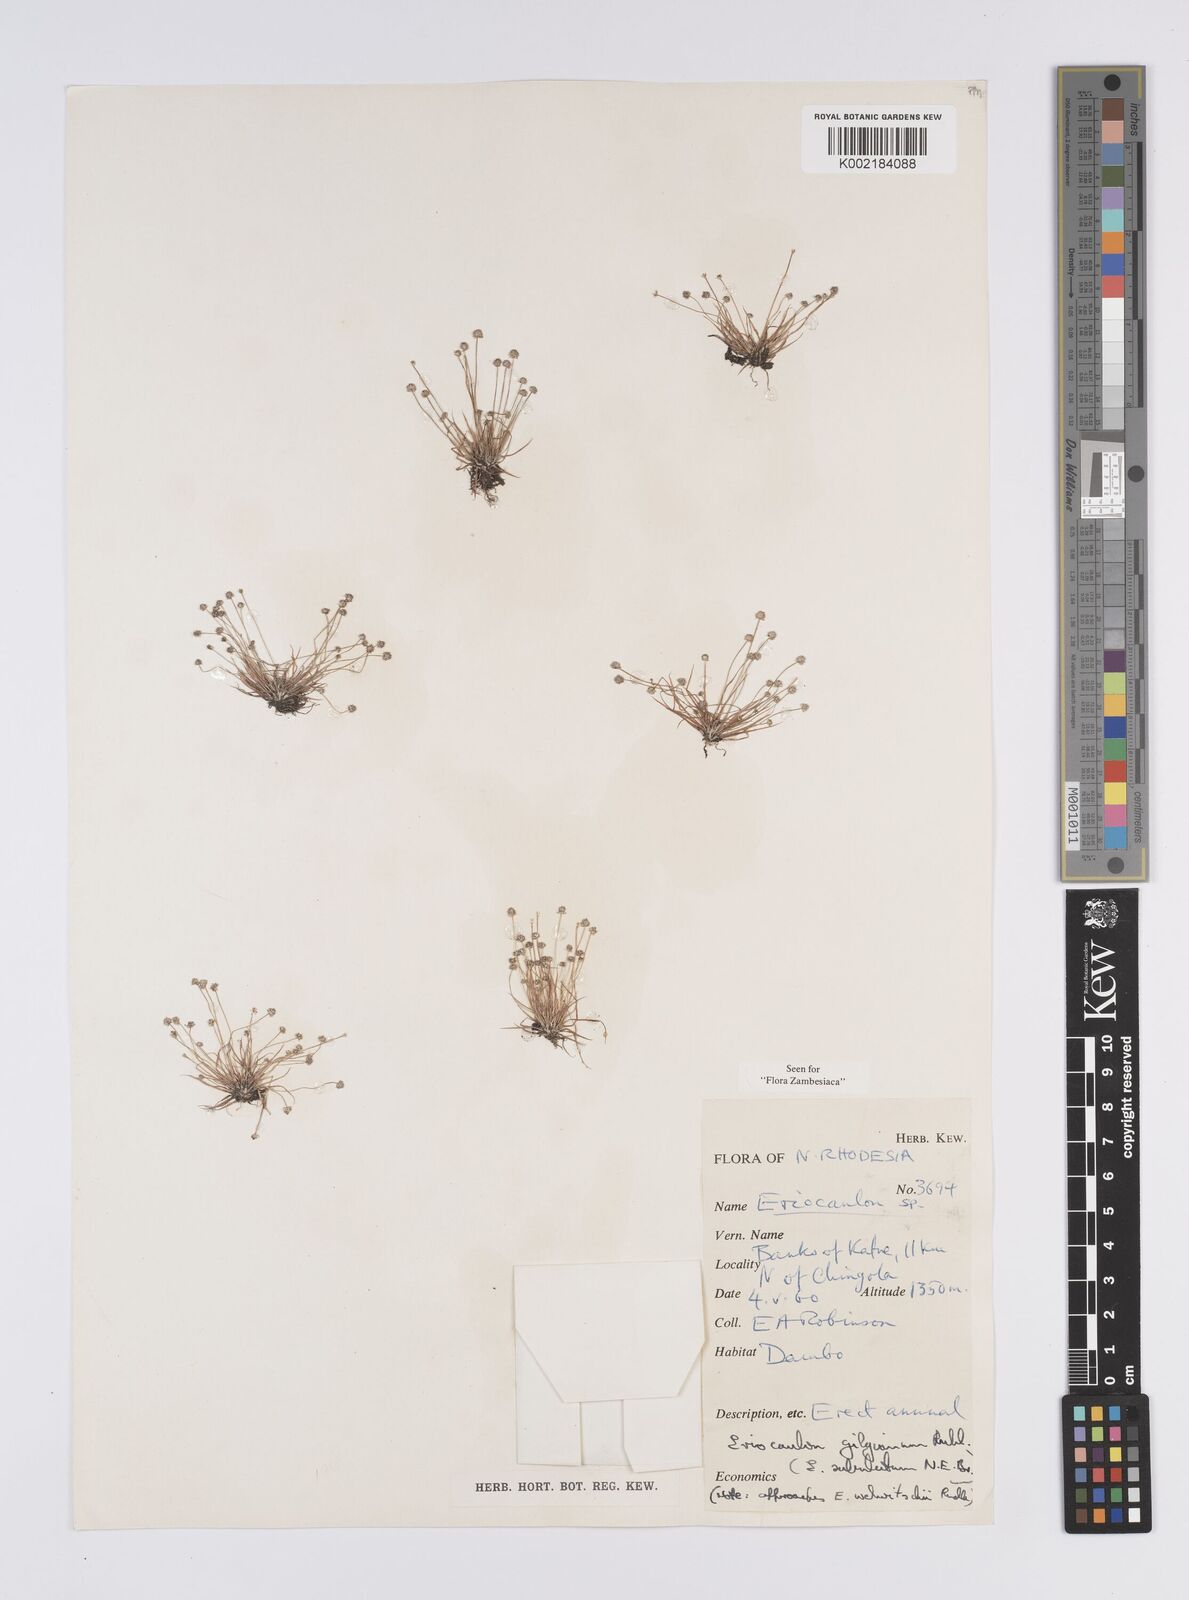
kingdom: Plantae
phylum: Tracheophyta
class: Liliopsida
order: Poales
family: Eriocaulaceae
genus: Eriocaulon
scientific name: Eriocaulon abyssinicum
